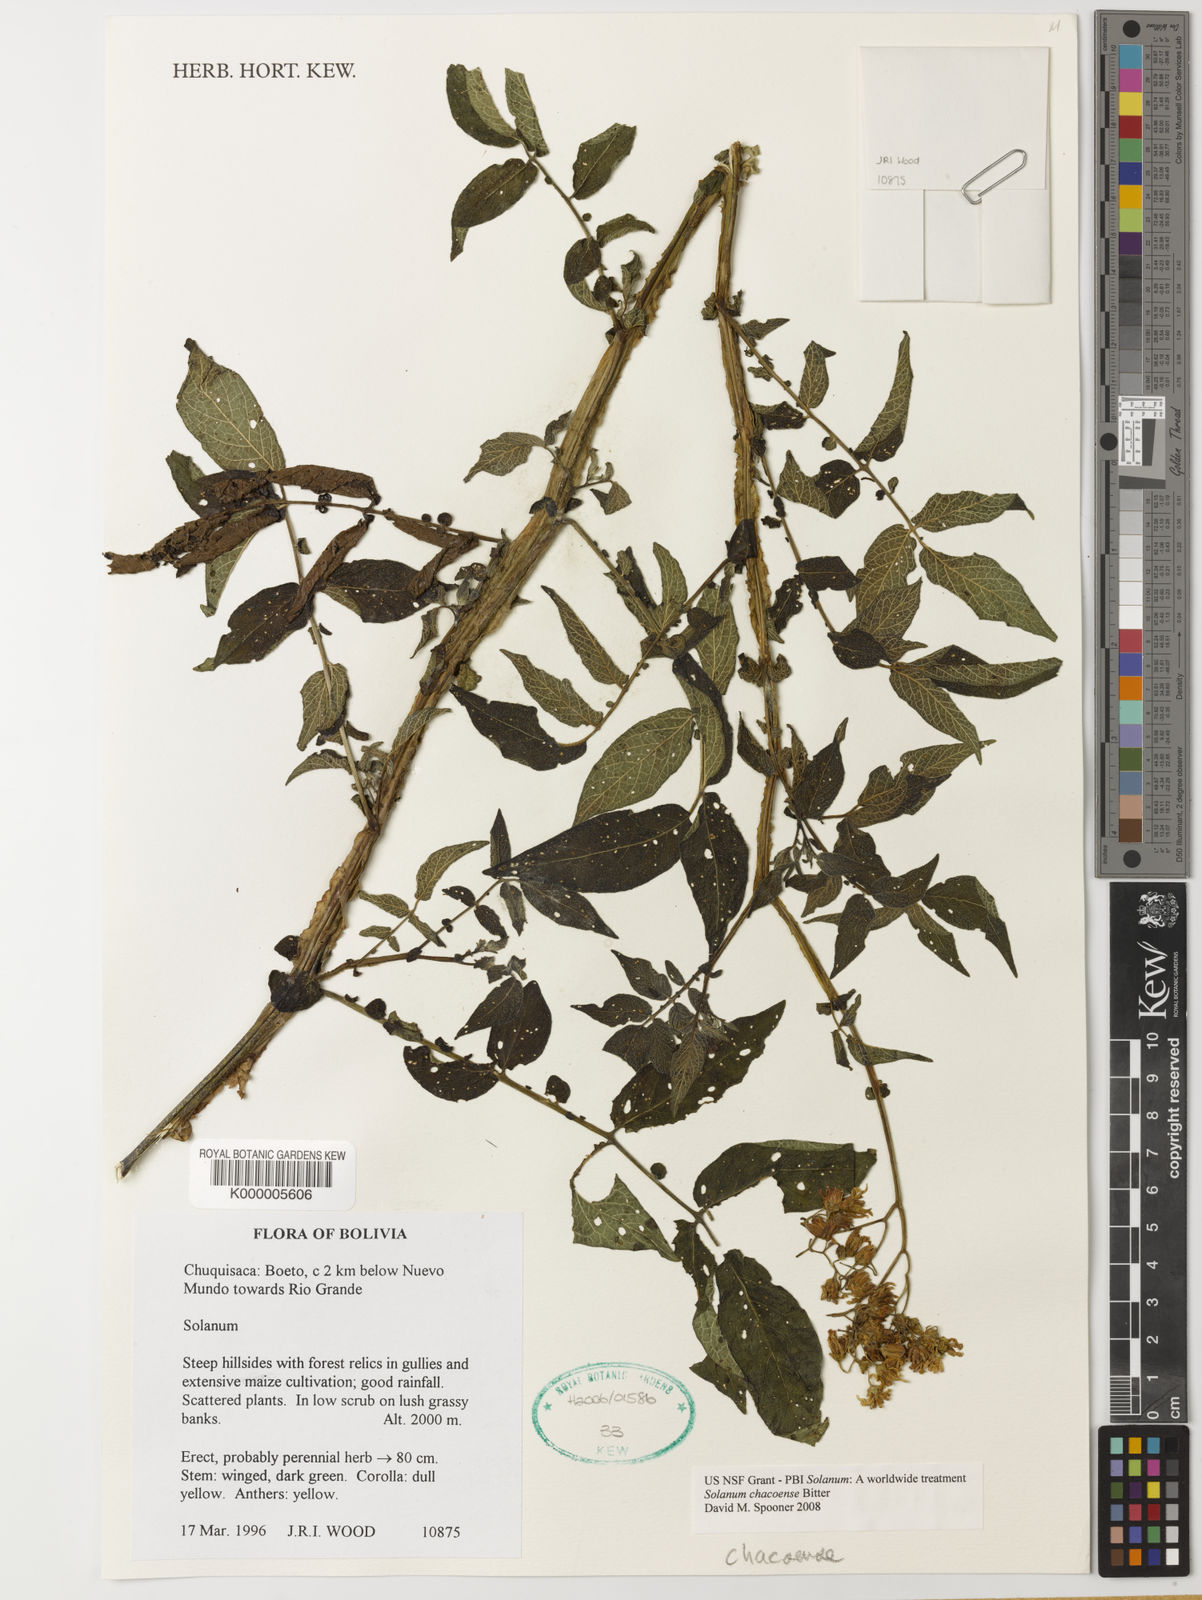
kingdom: Plantae
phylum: Tracheophyta
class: Magnoliopsida
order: Solanales
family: Solanaceae
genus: Solanum
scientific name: Solanum chacoense
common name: Chaco potato
